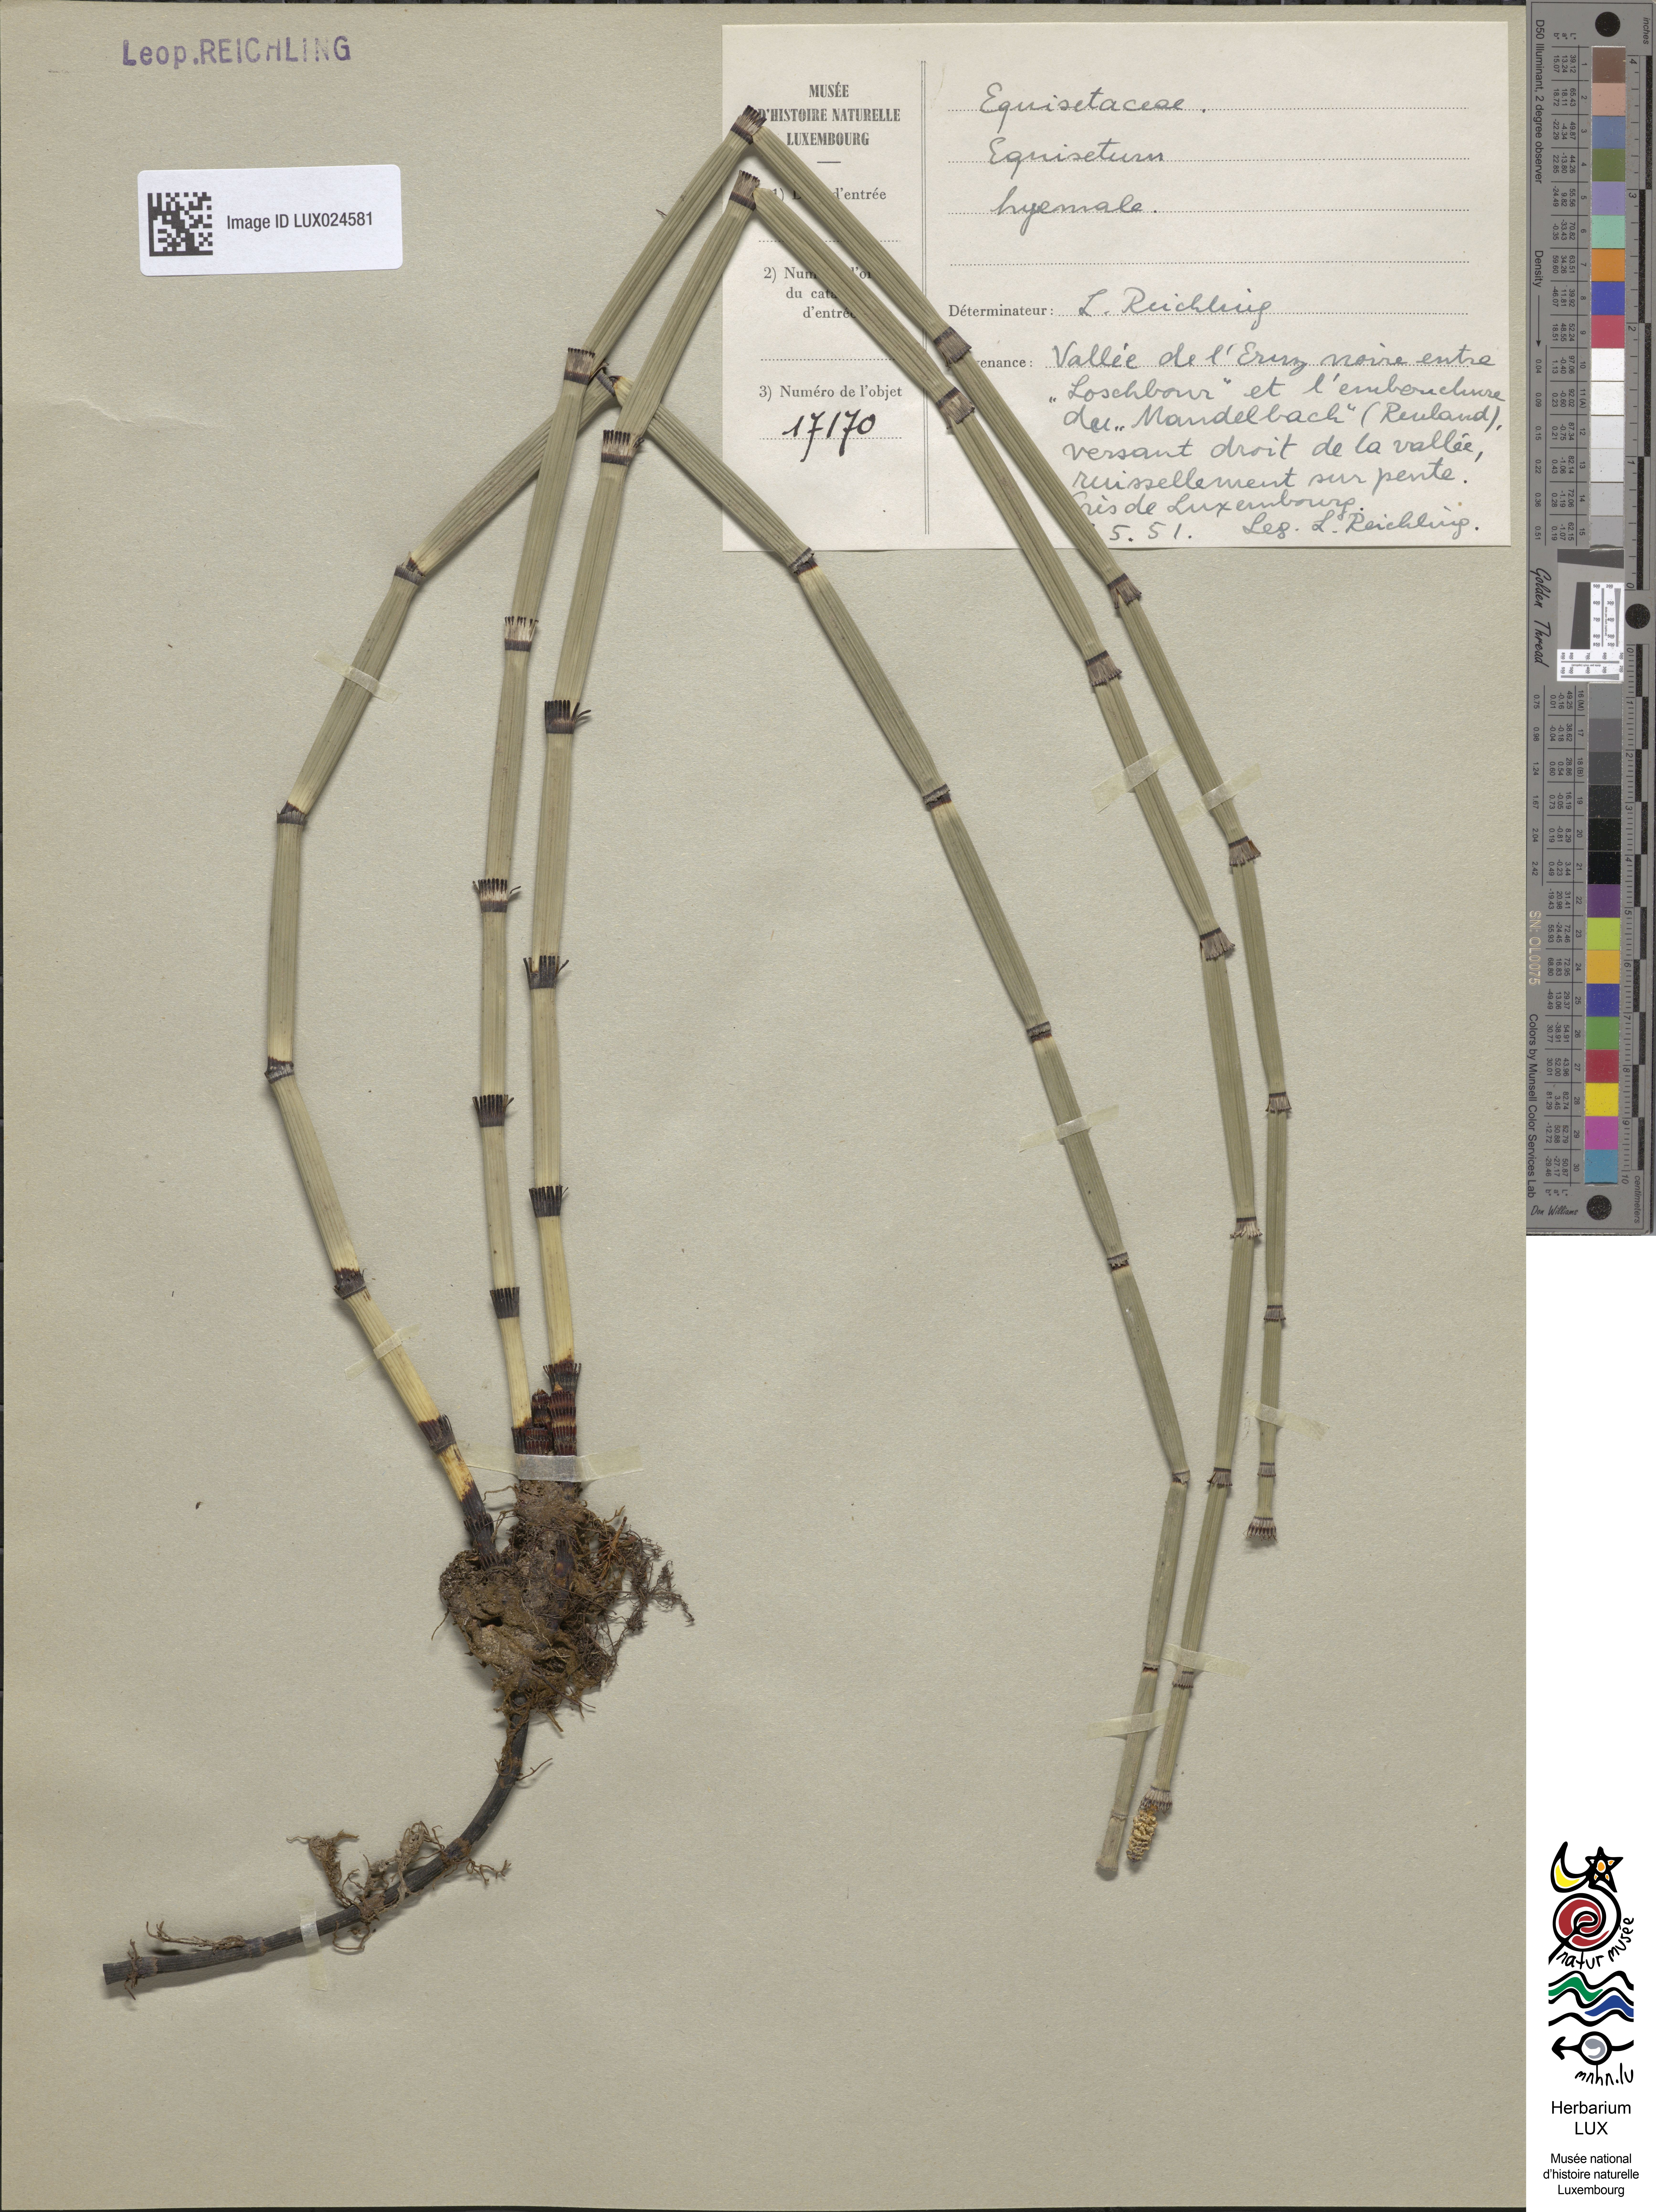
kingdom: Plantae
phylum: Tracheophyta
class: Polypodiopsida
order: Equisetales
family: Equisetaceae
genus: Equisetum
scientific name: Equisetum hyemale
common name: Rough horsetail
